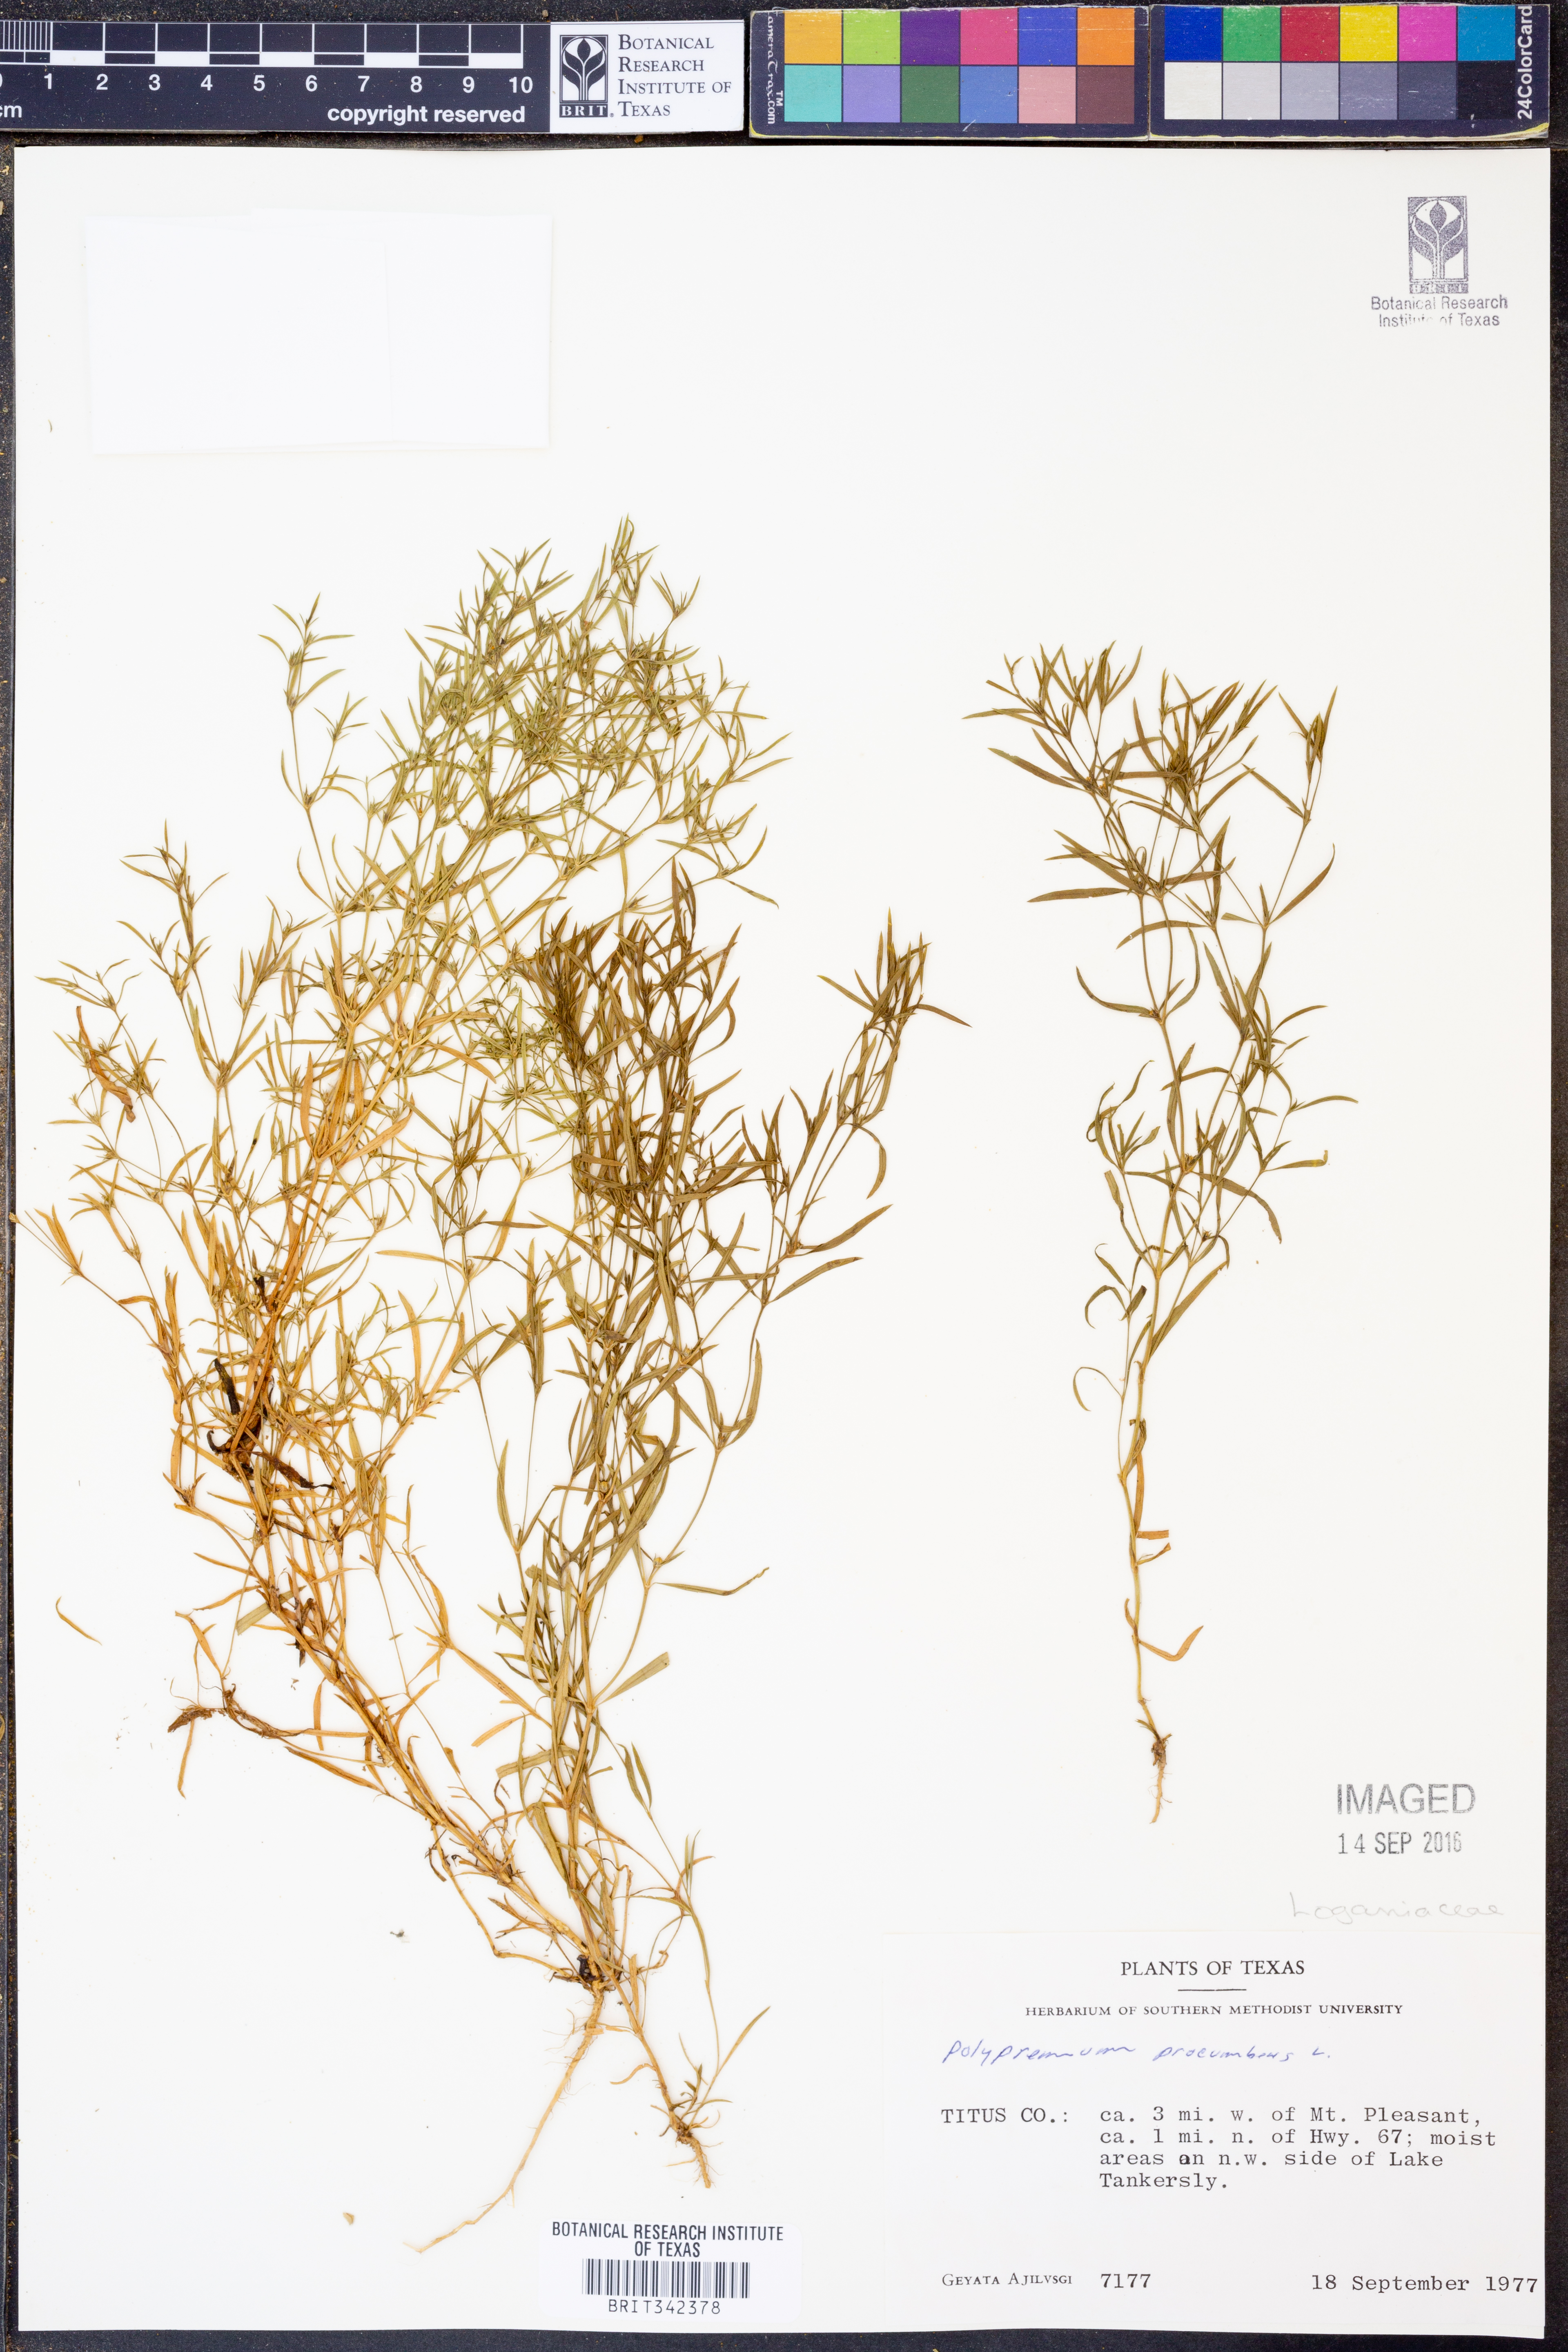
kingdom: Plantae
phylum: Tracheophyta
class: Magnoliopsida
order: Lamiales
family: Tetrachondraceae
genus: Polypremum
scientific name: Polypremum procumbens
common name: Juniper-leaf
